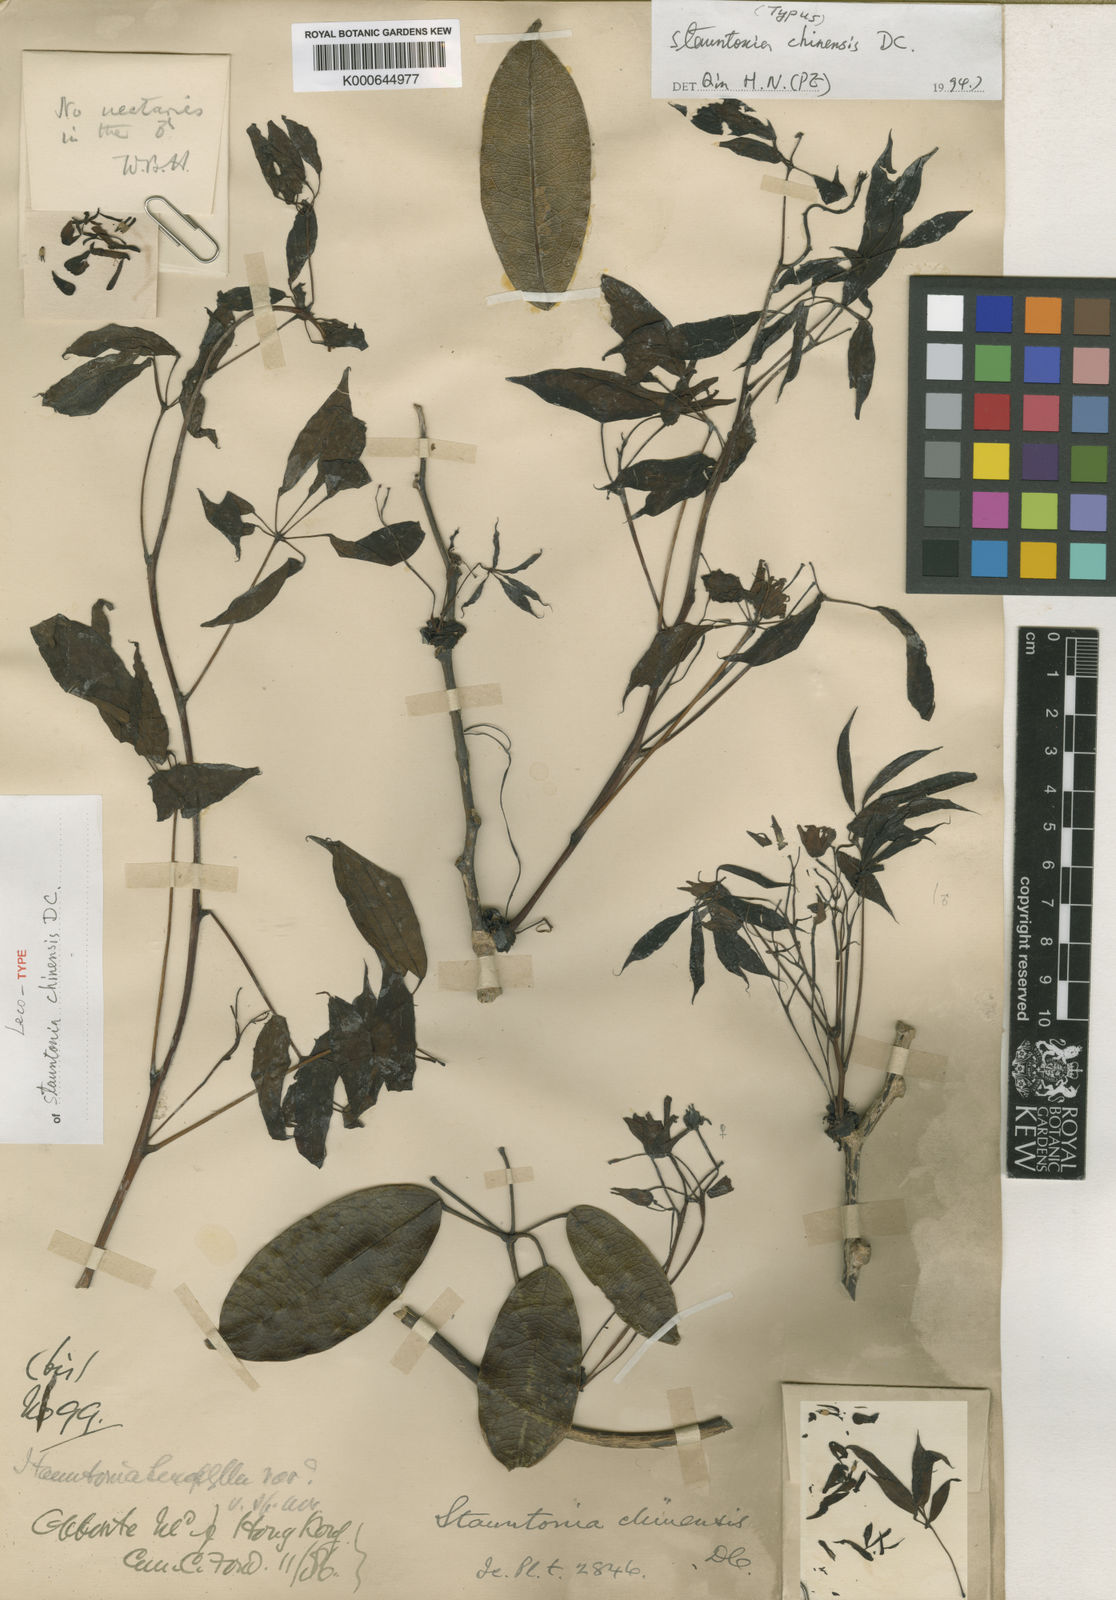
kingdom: Plantae
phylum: Tracheophyta
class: Magnoliopsida
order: Ranunculales
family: Lardizabalaceae
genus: Stauntonia
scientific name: Stauntonia chinensis
